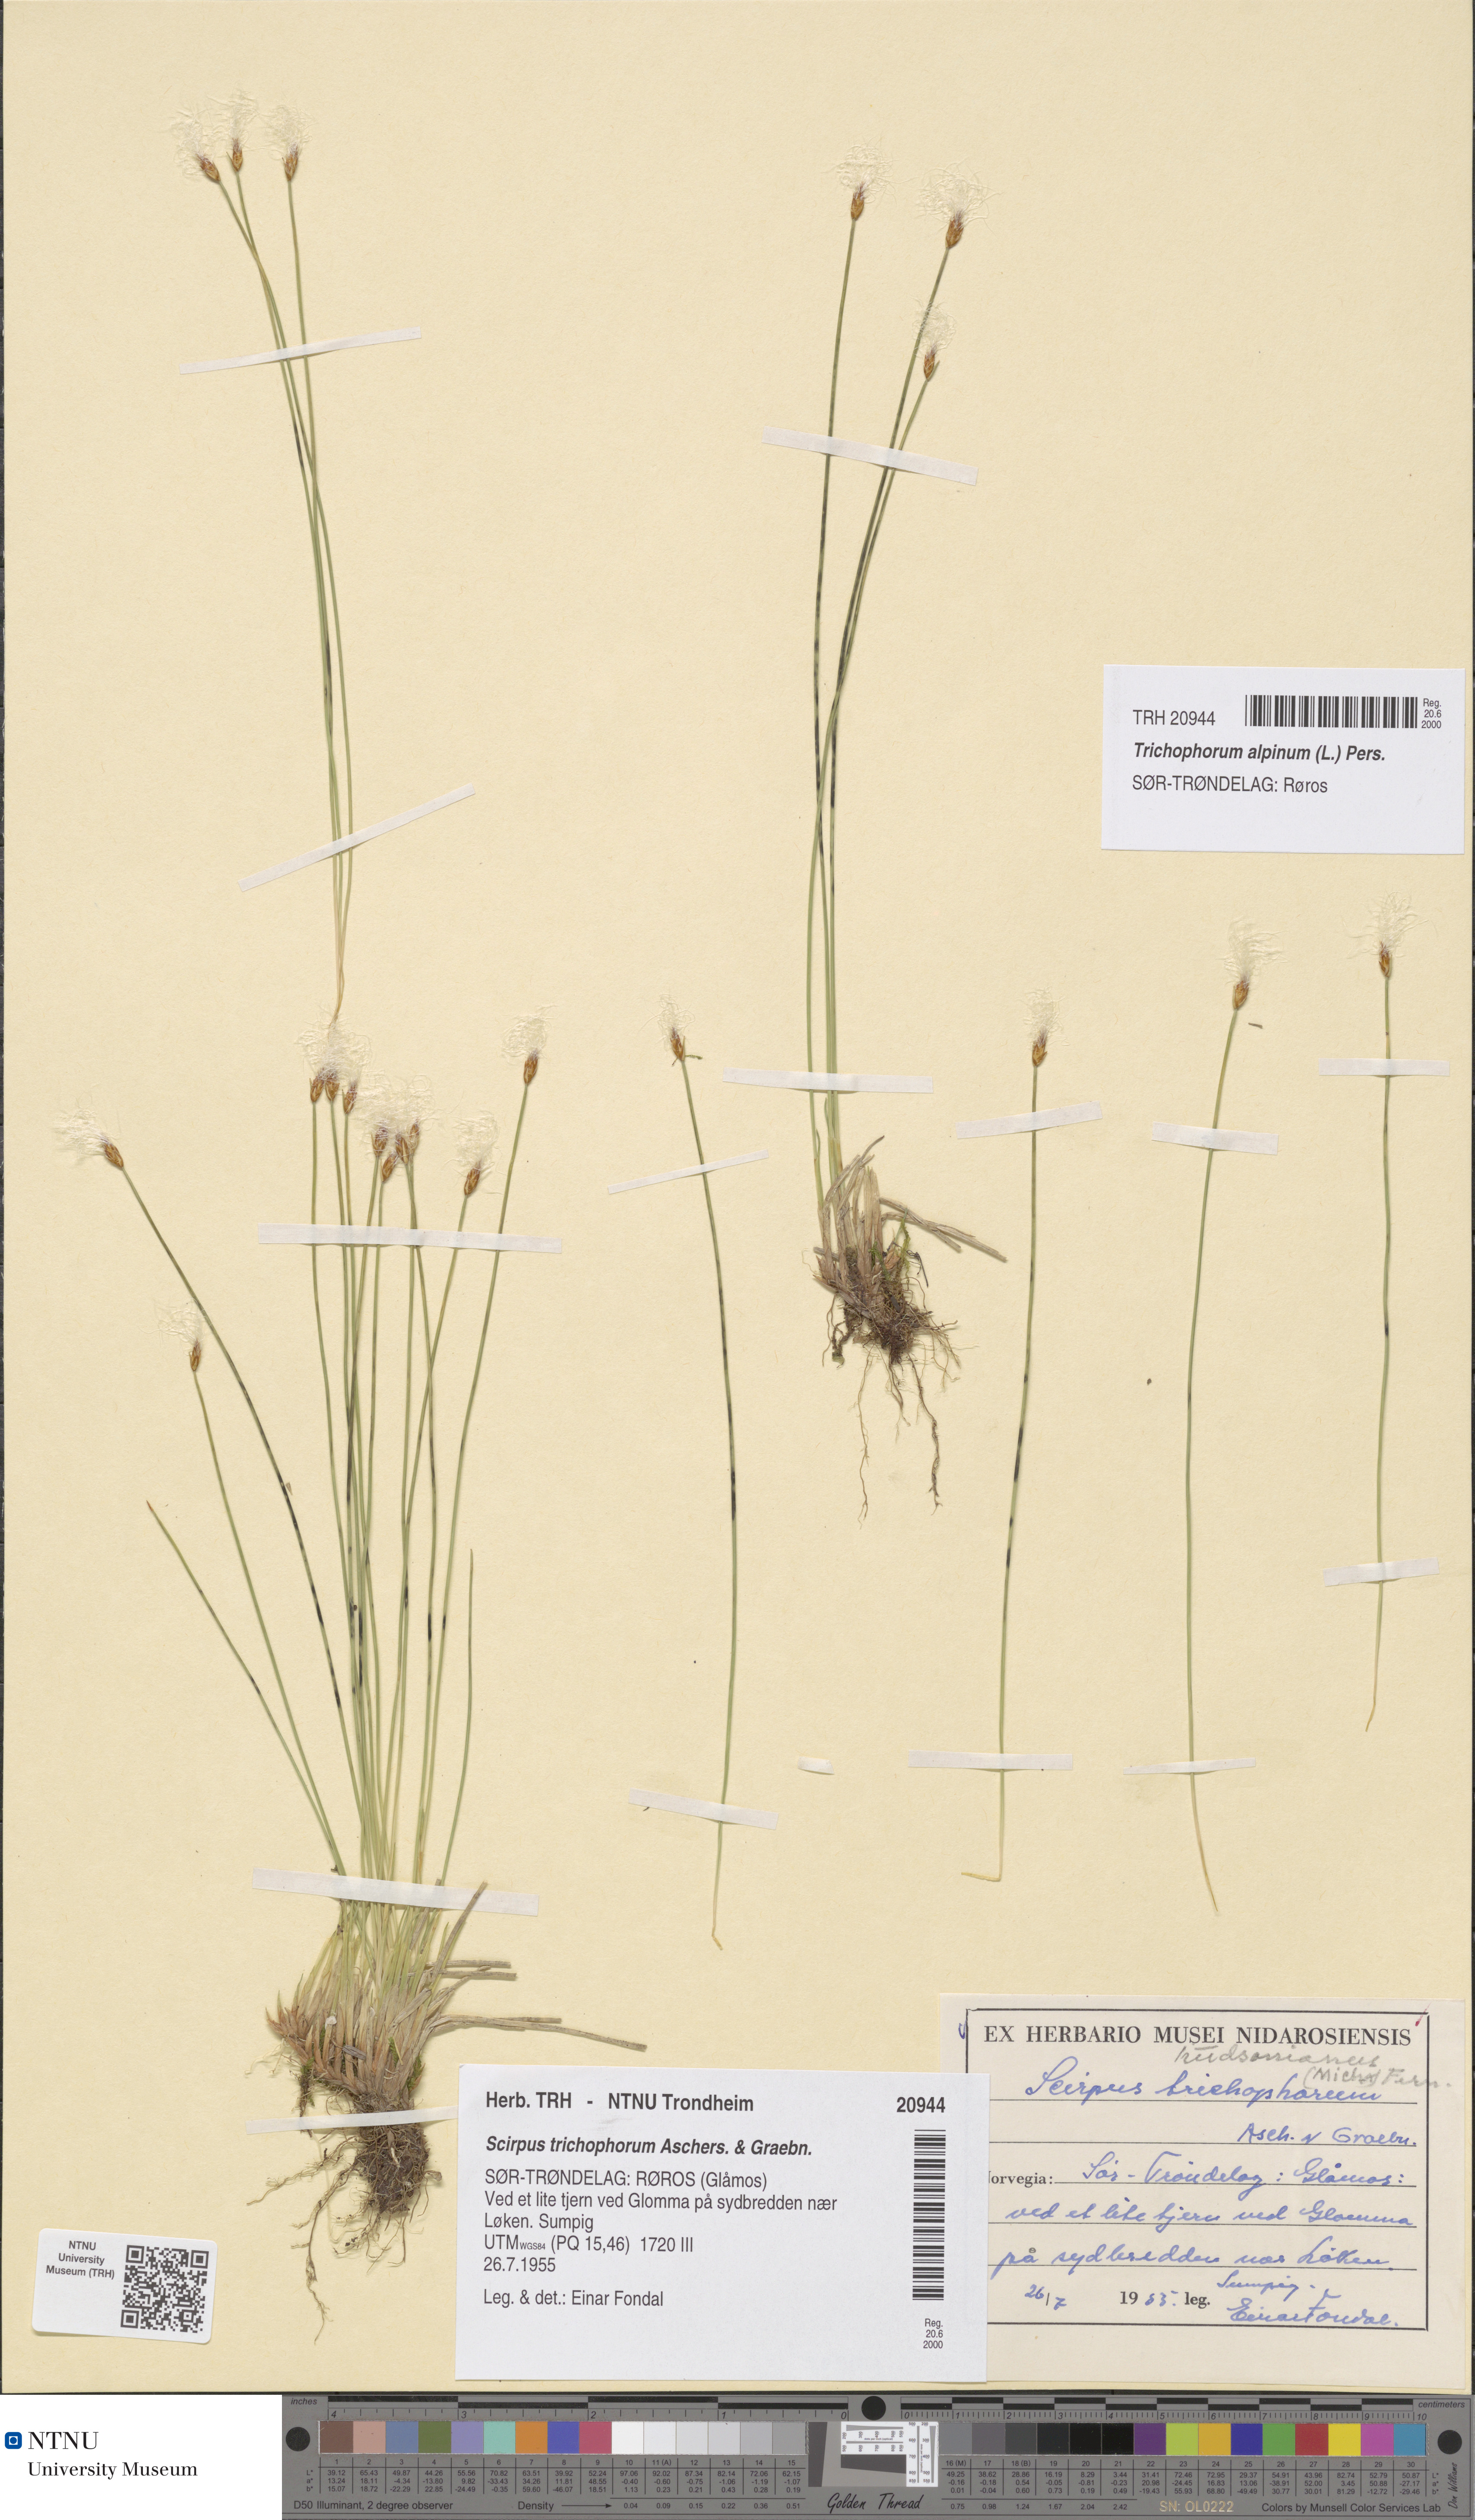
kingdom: Plantae
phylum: Tracheophyta
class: Liliopsida
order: Poales
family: Cyperaceae
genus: Trichophorum
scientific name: Trichophorum alpinum
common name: Alpine bulrush
